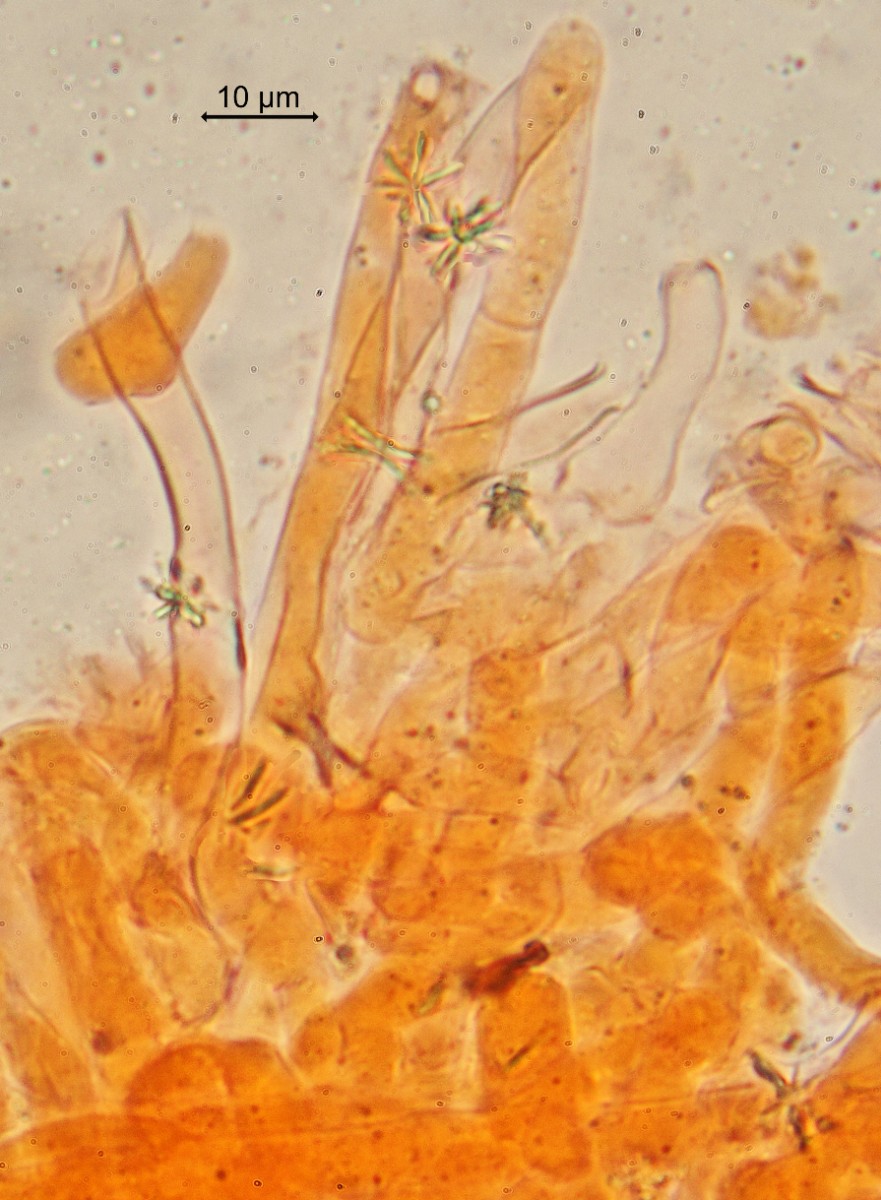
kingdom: Fungi
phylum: Basidiomycota
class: Agaricomycetes
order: Corticiales
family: Corticiaceae
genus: Laetisaria
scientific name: Laetisaria fuciformis
